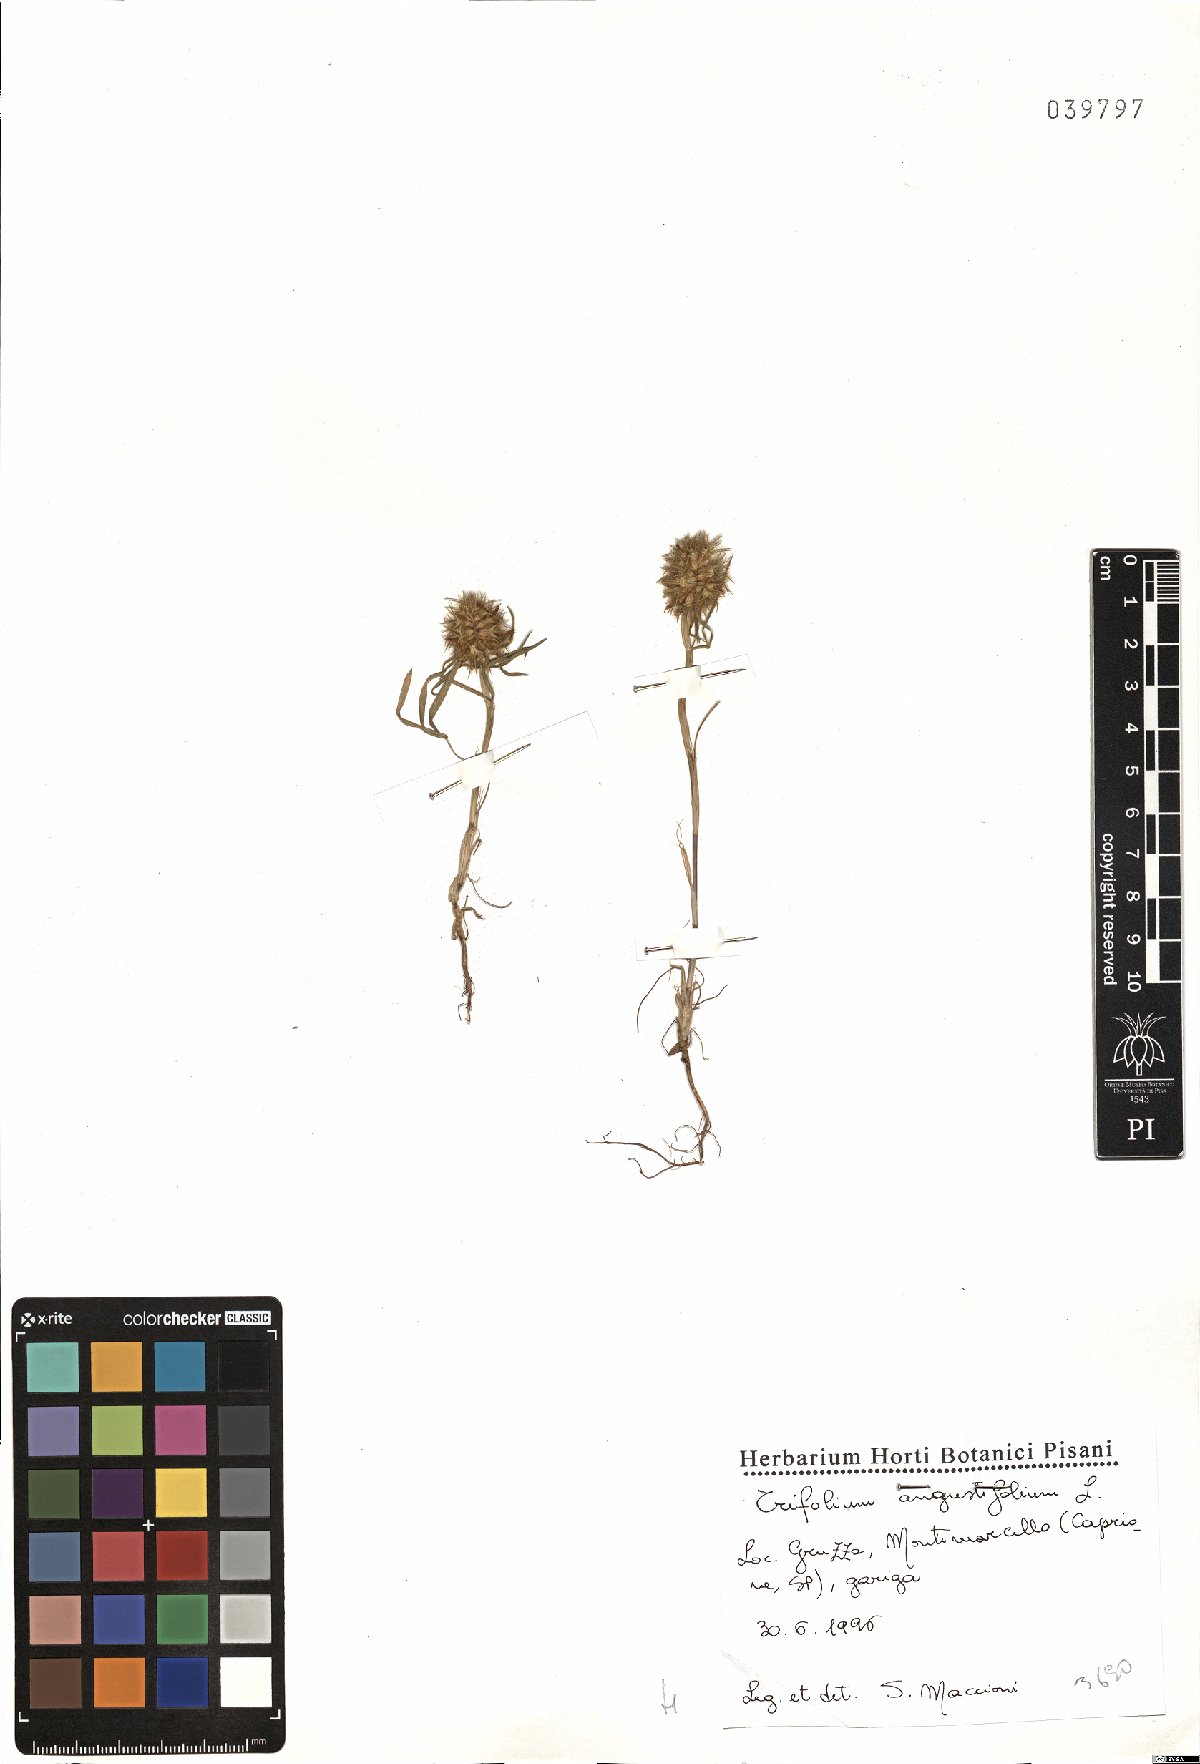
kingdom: Plantae
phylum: Tracheophyta
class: Magnoliopsida
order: Fabales
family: Fabaceae
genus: Trifolium
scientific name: Trifolium angustifolium
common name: Narrow clover
